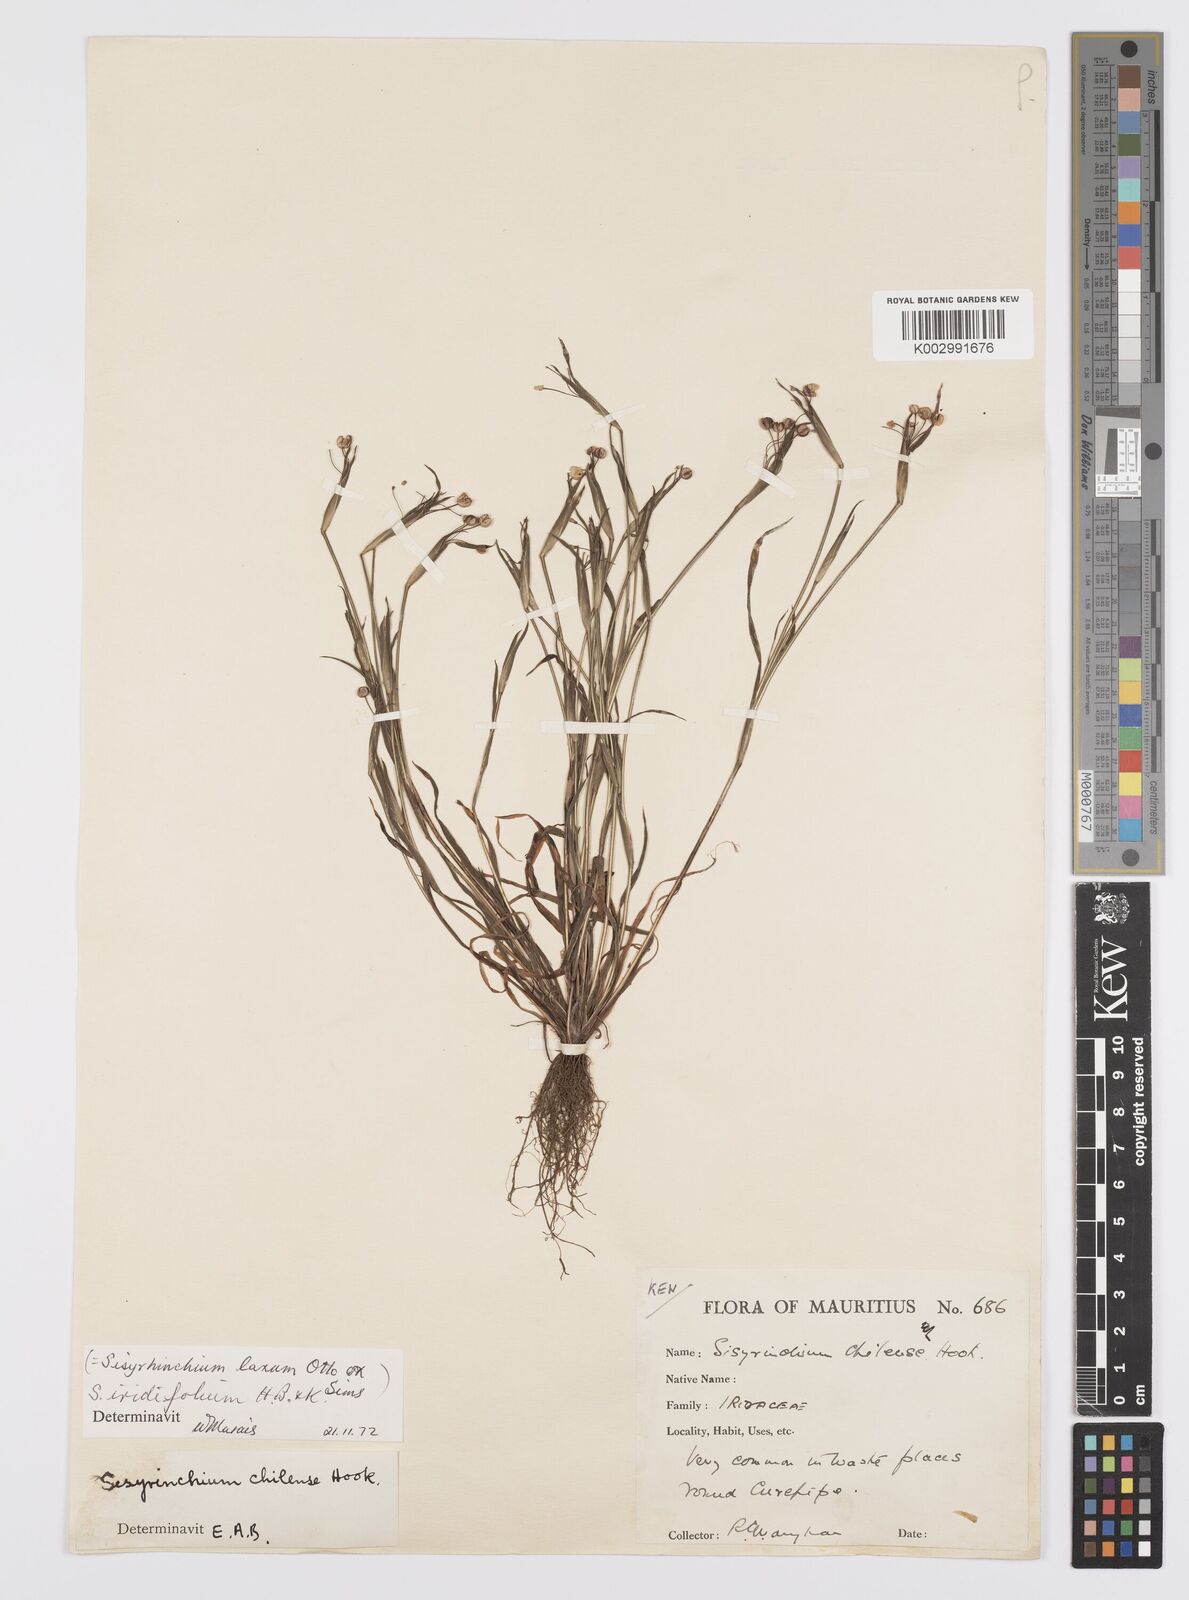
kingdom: Plantae
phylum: Tracheophyta
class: Liliopsida
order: Asparagales
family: Iridaceae
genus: Sisyrinchium
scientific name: Sisyrinchium micranthum
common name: Bermuda pigroot
